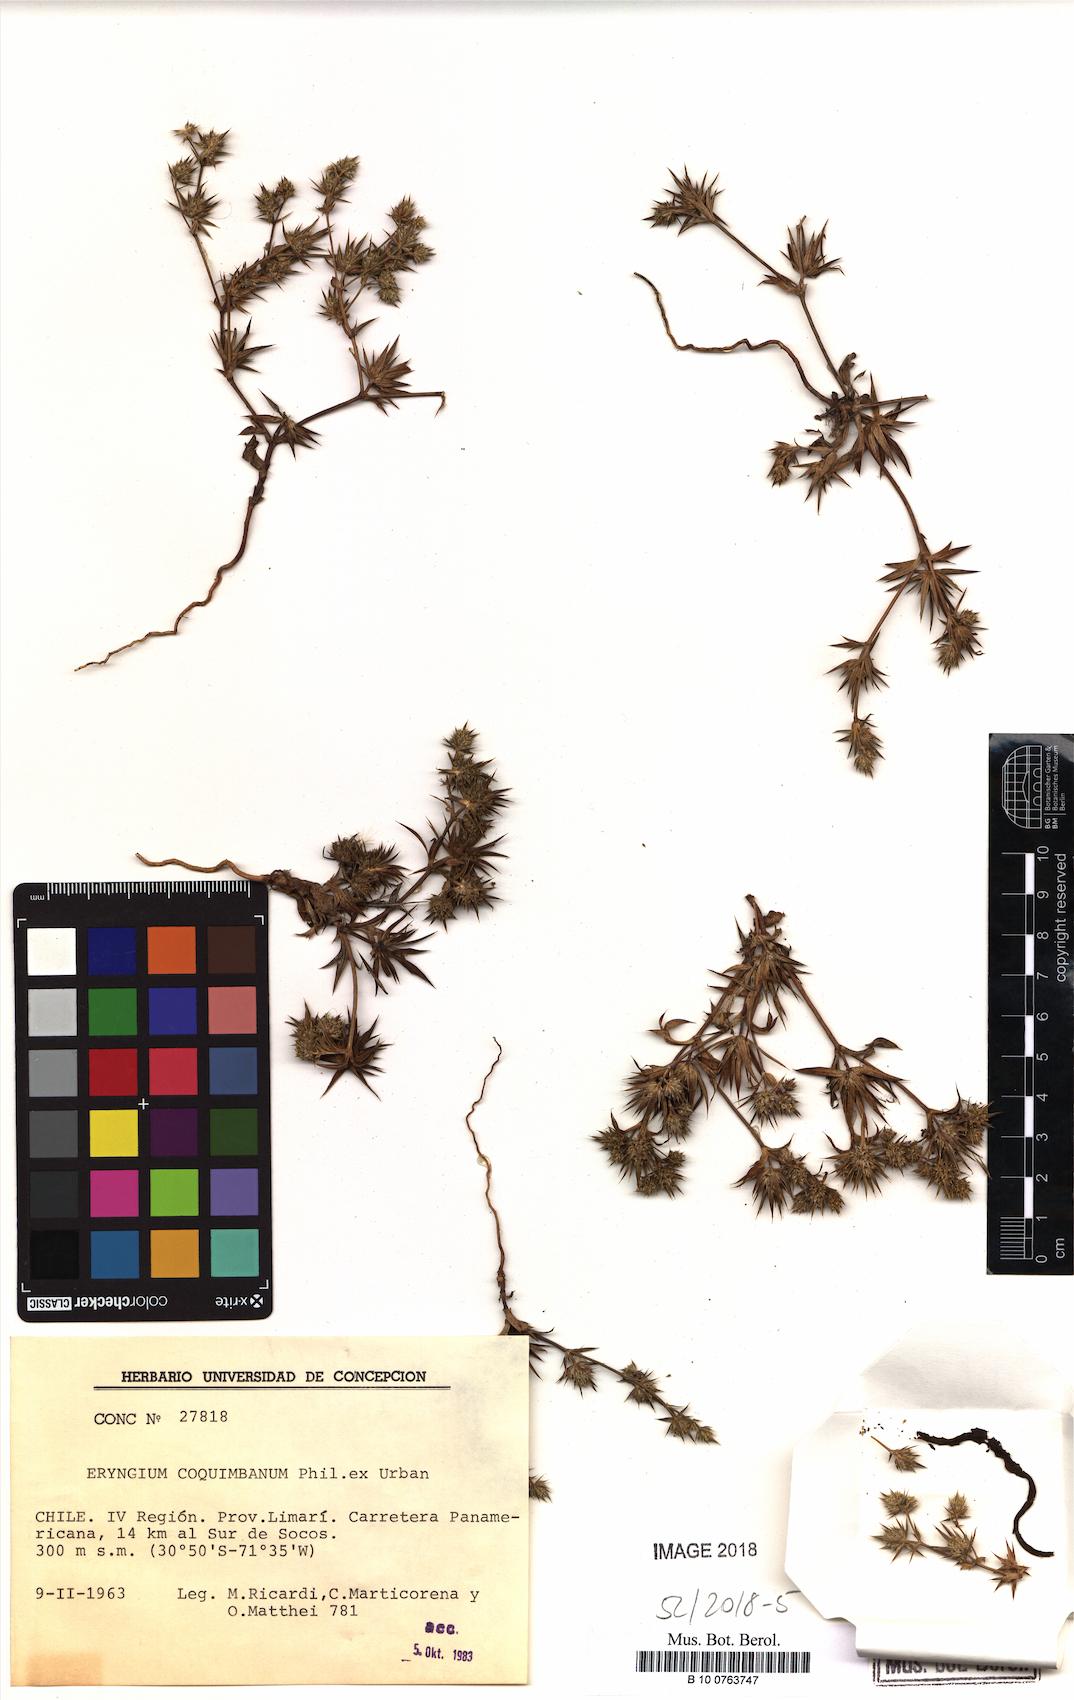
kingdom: Plantae
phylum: Tracheophyta
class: Magnoliopsida
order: Apiales
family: Apiaceae
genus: Eryngium
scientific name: Eryngium coquimbanum
